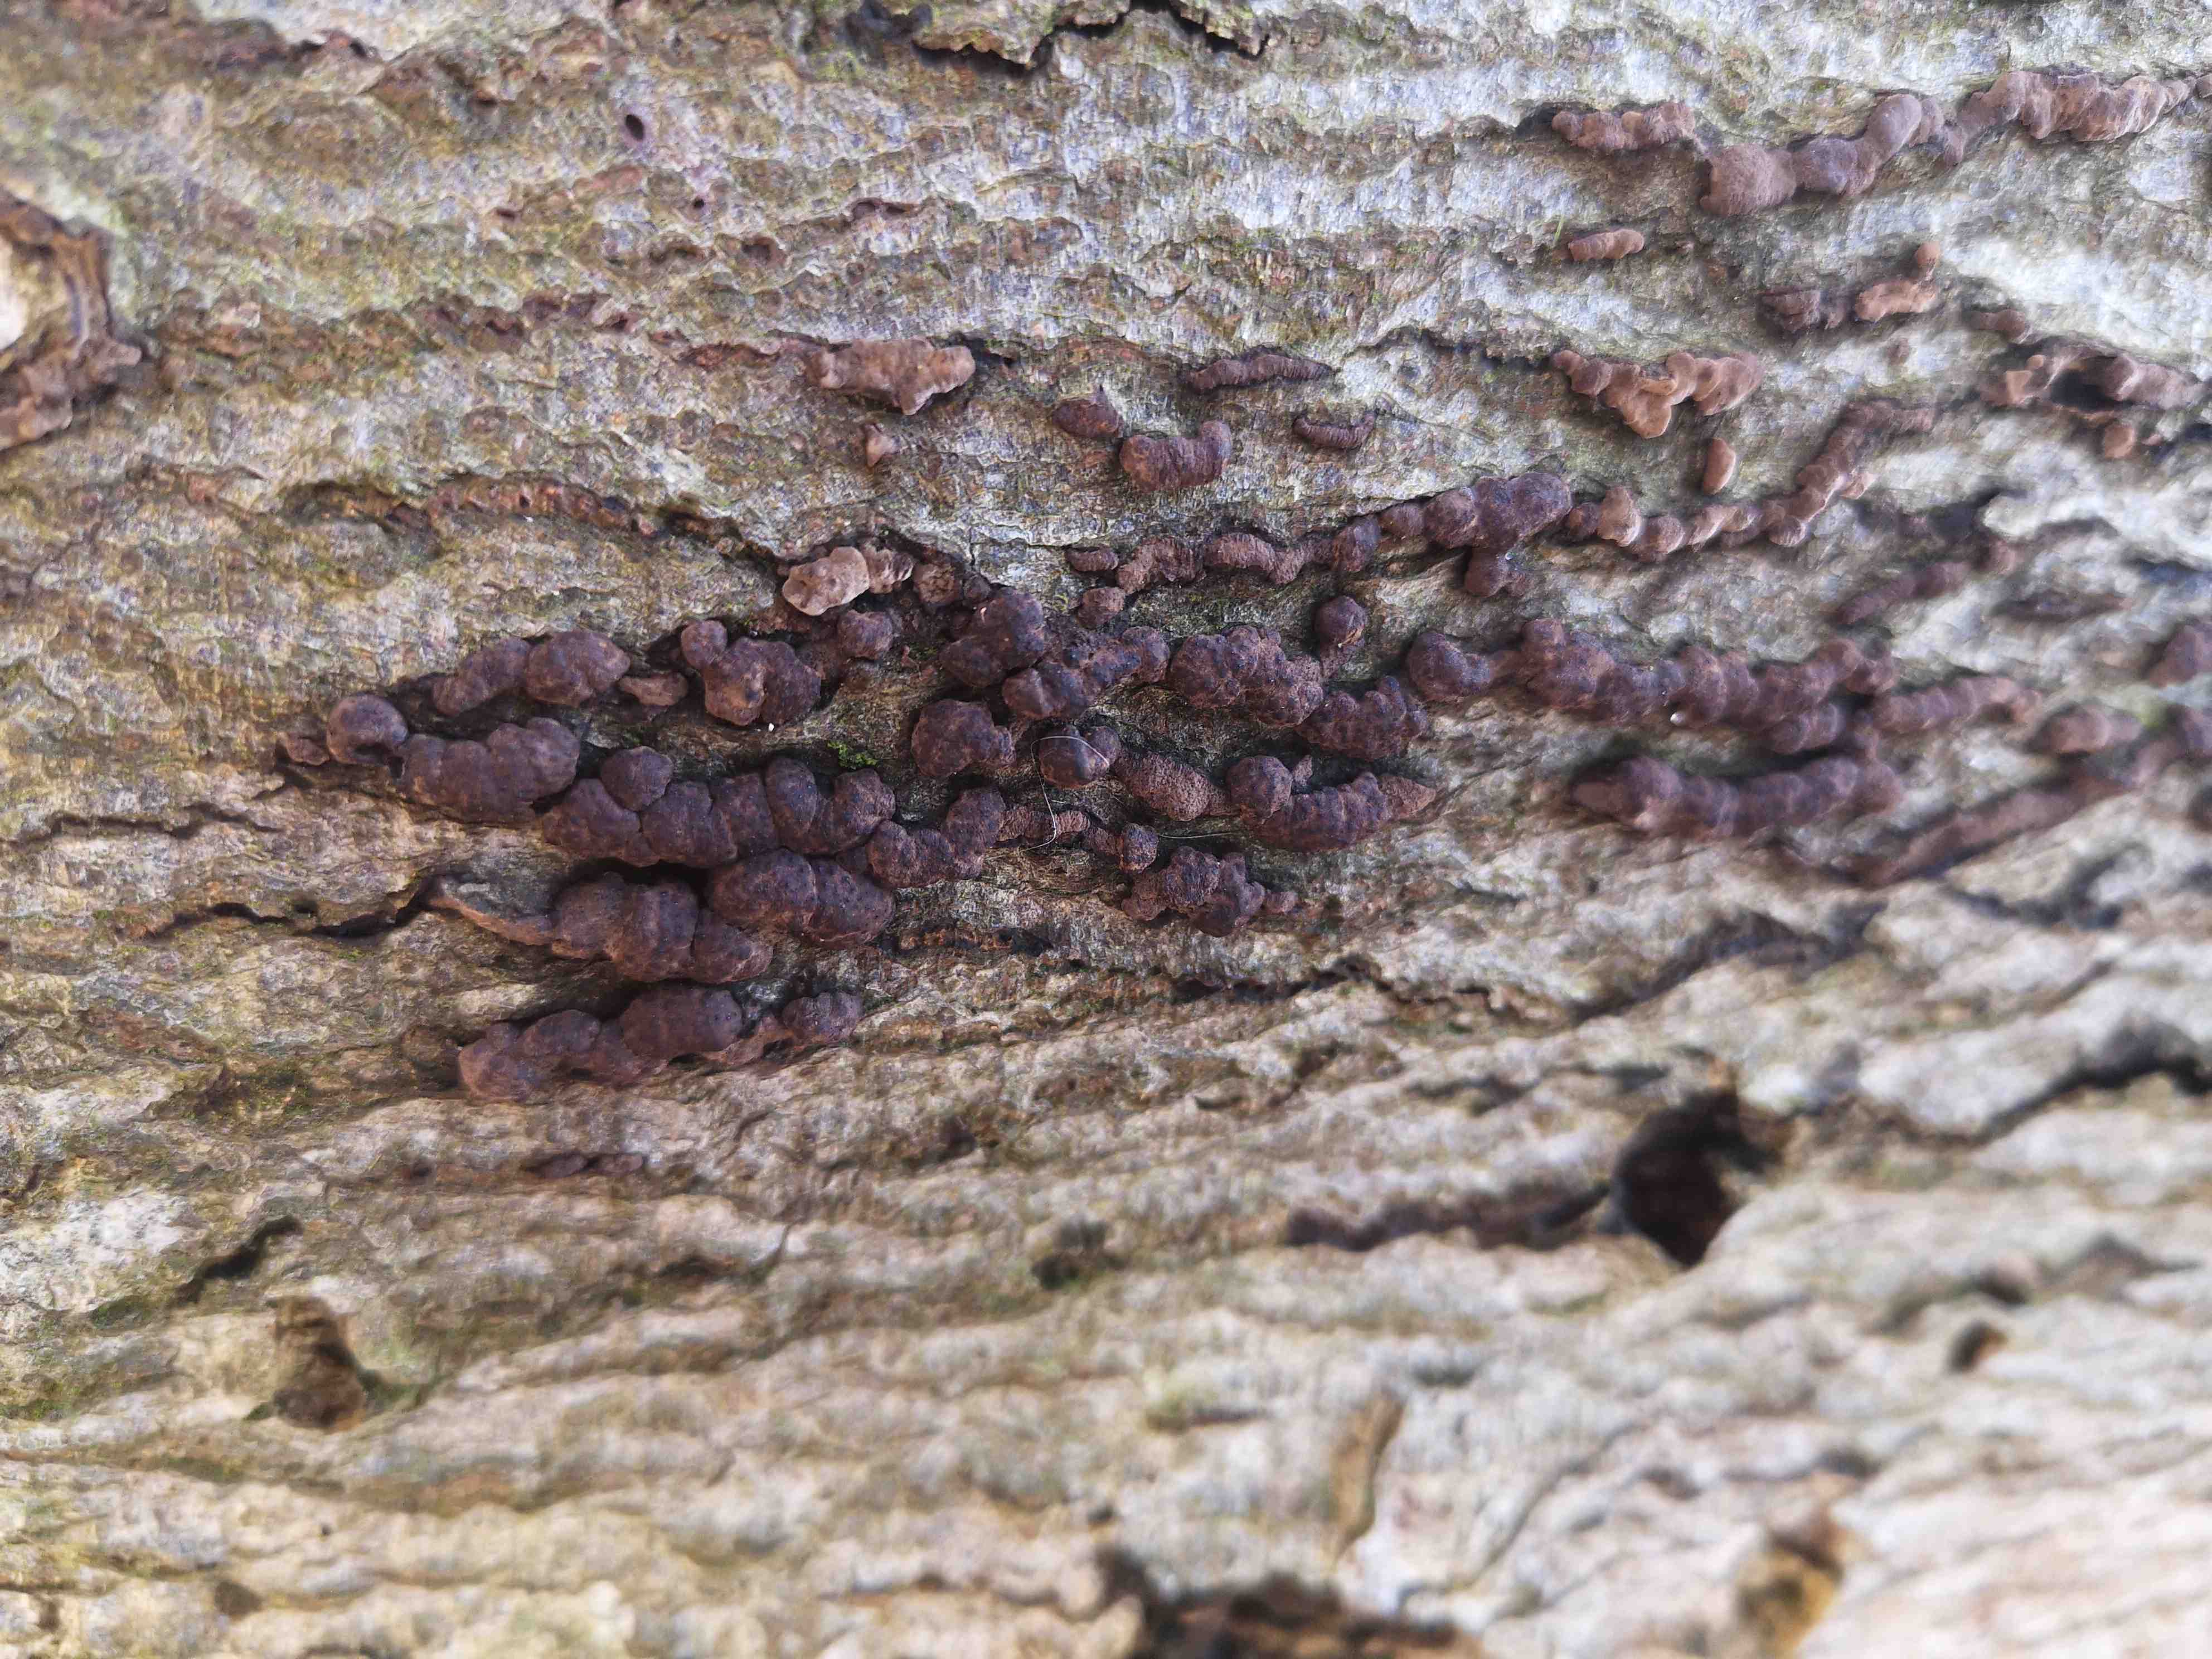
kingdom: Fungi
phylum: Ascomycota
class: Sordariomycetes
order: Xylariales
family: Hypoxylaceae
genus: Hypoxylon
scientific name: Hypoxylon fragiforme
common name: kuljordbær
